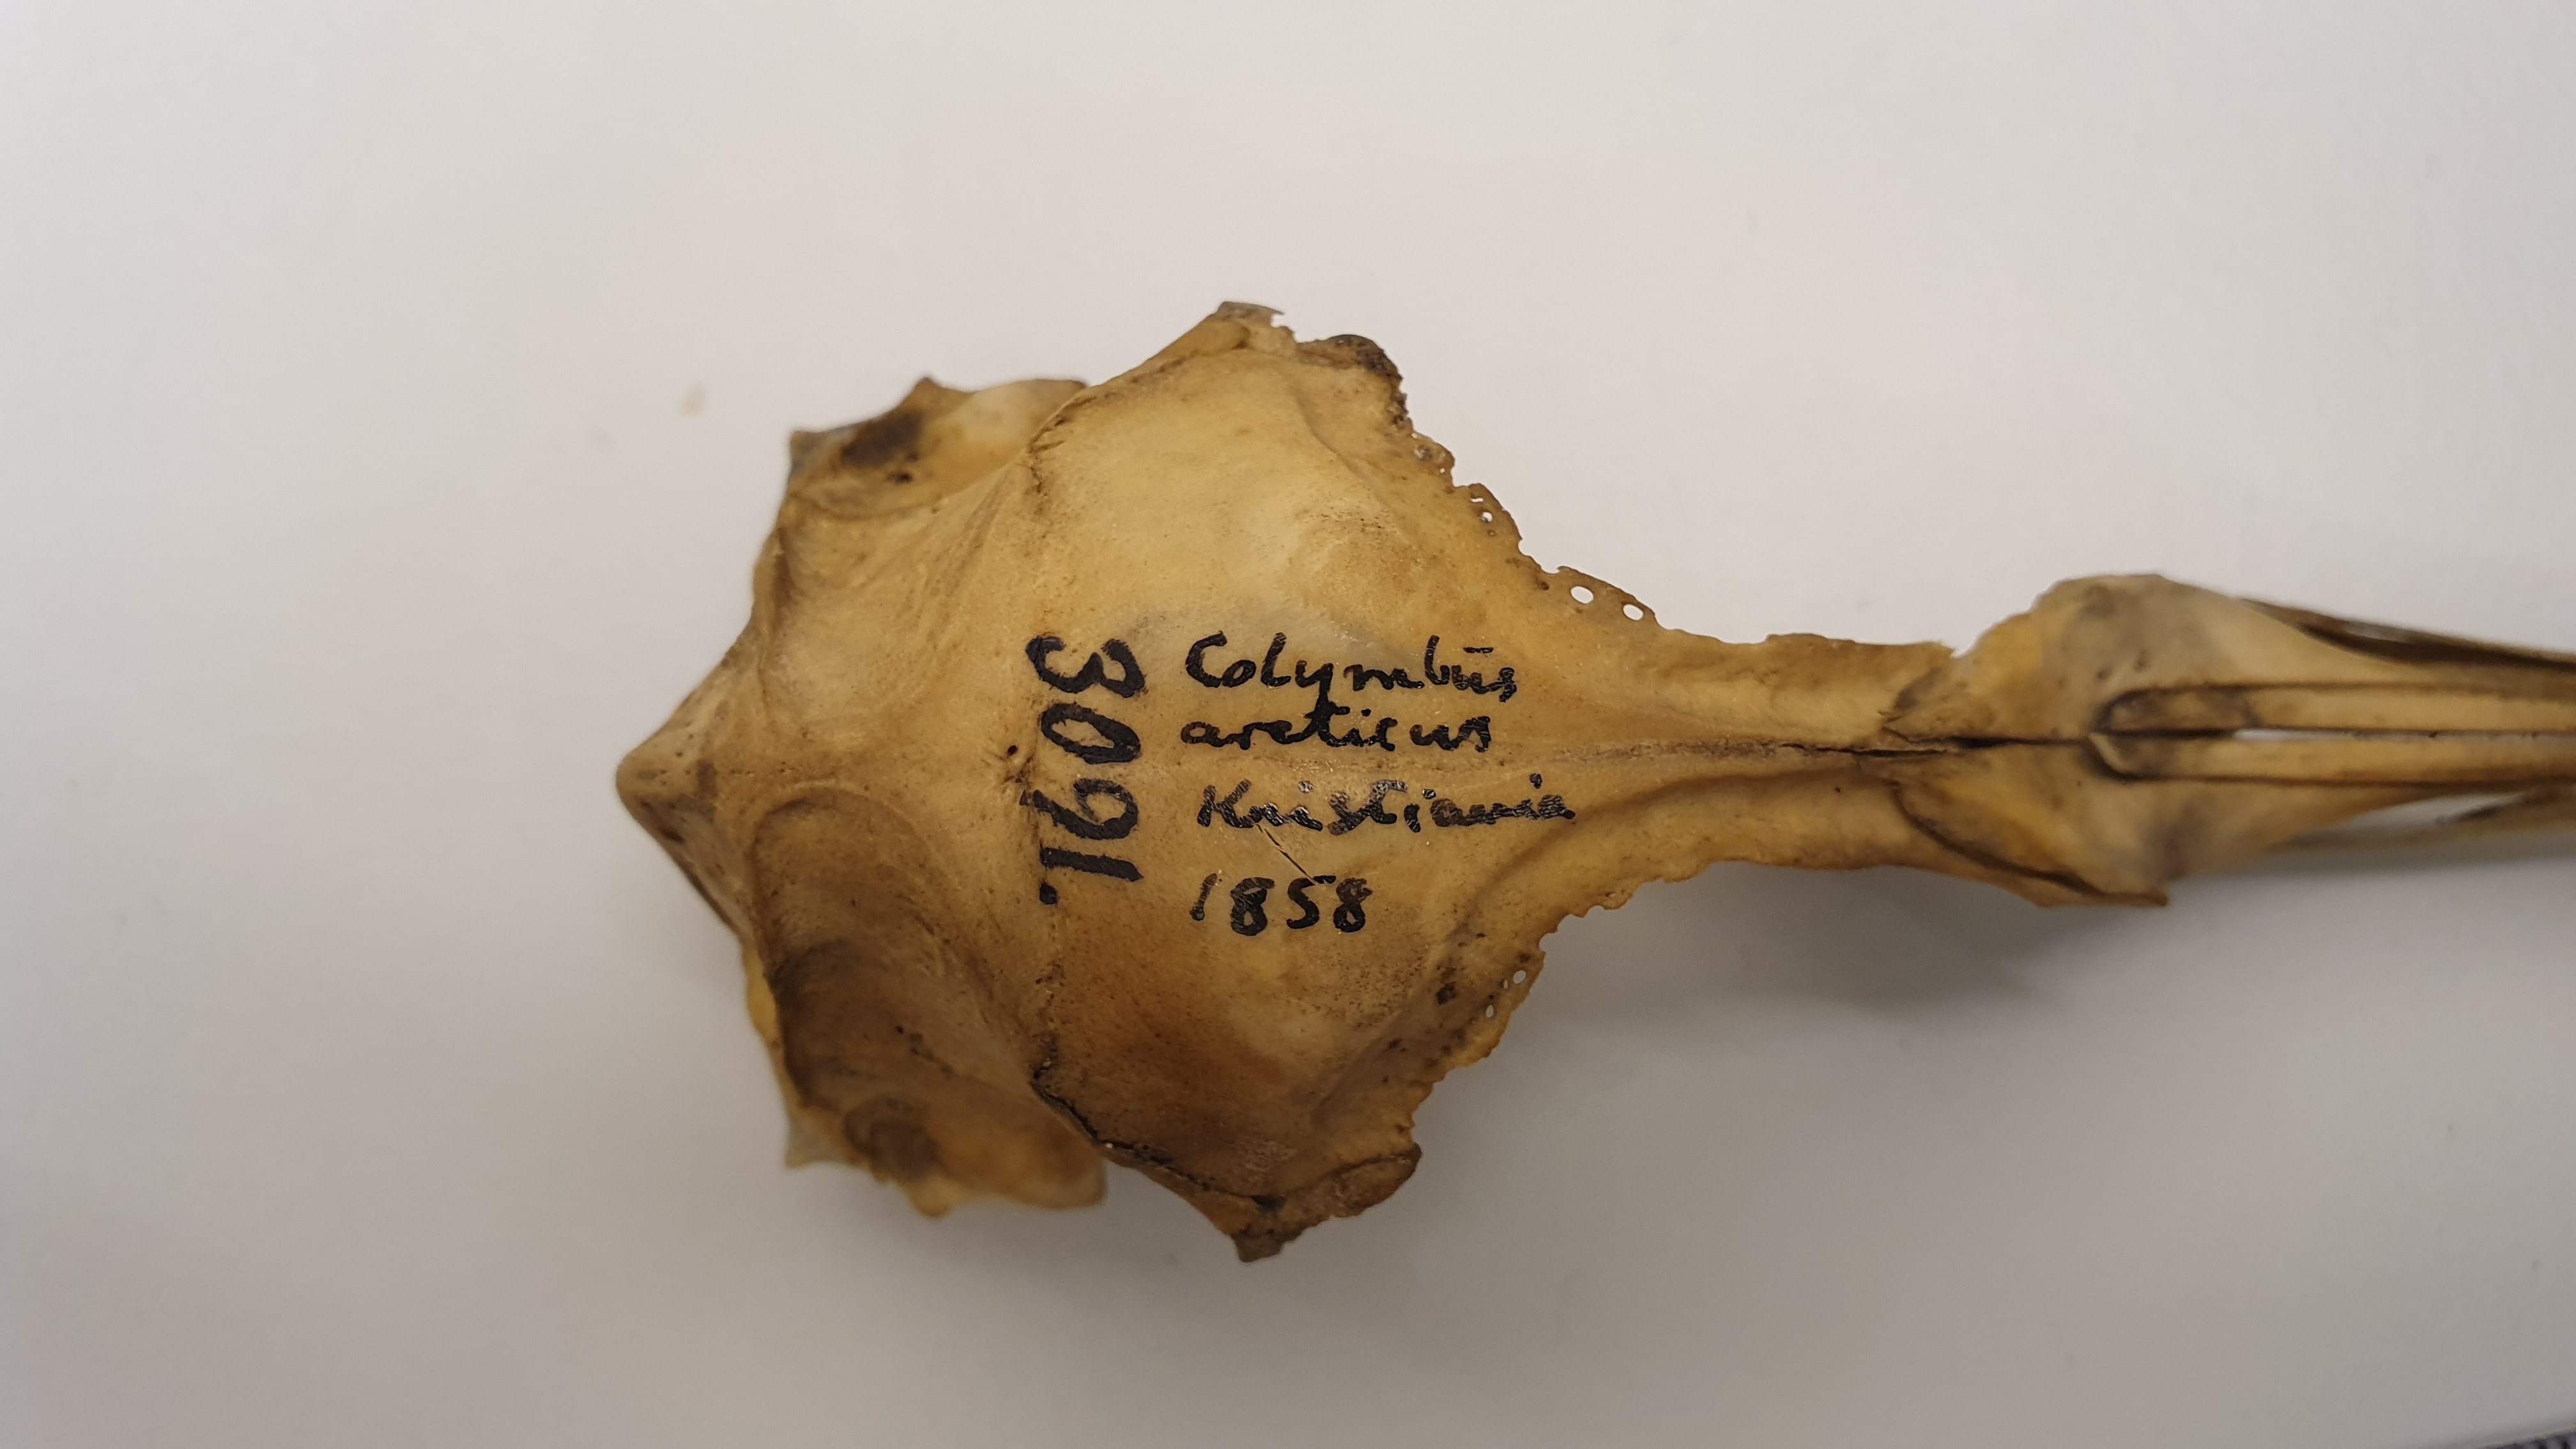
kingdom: Animalia
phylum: Chordata
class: Aves
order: Gaviiformes
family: Gaviidae
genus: Gavia
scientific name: Gavia arctica
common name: Black-throated loon
